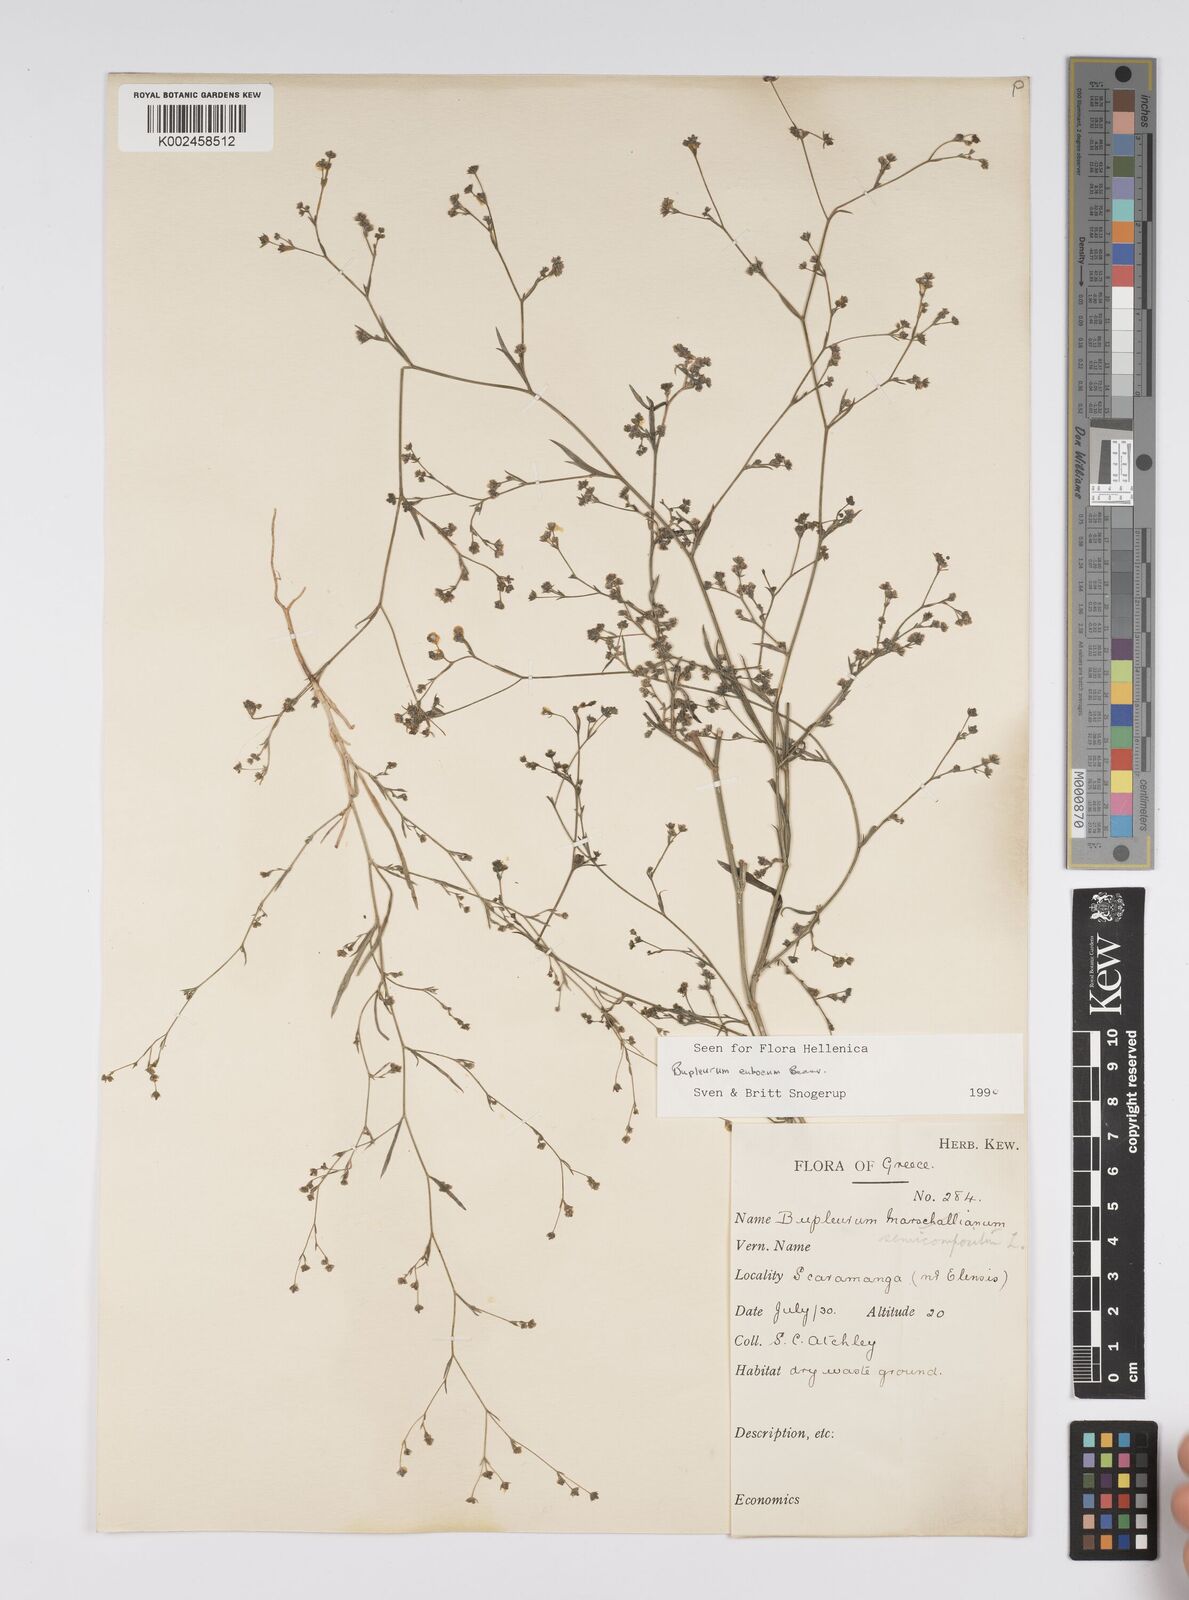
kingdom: Plantae
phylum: Tracheophyta
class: Magnoliopsida
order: Apiales
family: Apiaceae
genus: Bupleurum
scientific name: Bupleurum tenuissimum
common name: Slender hare's-ear
